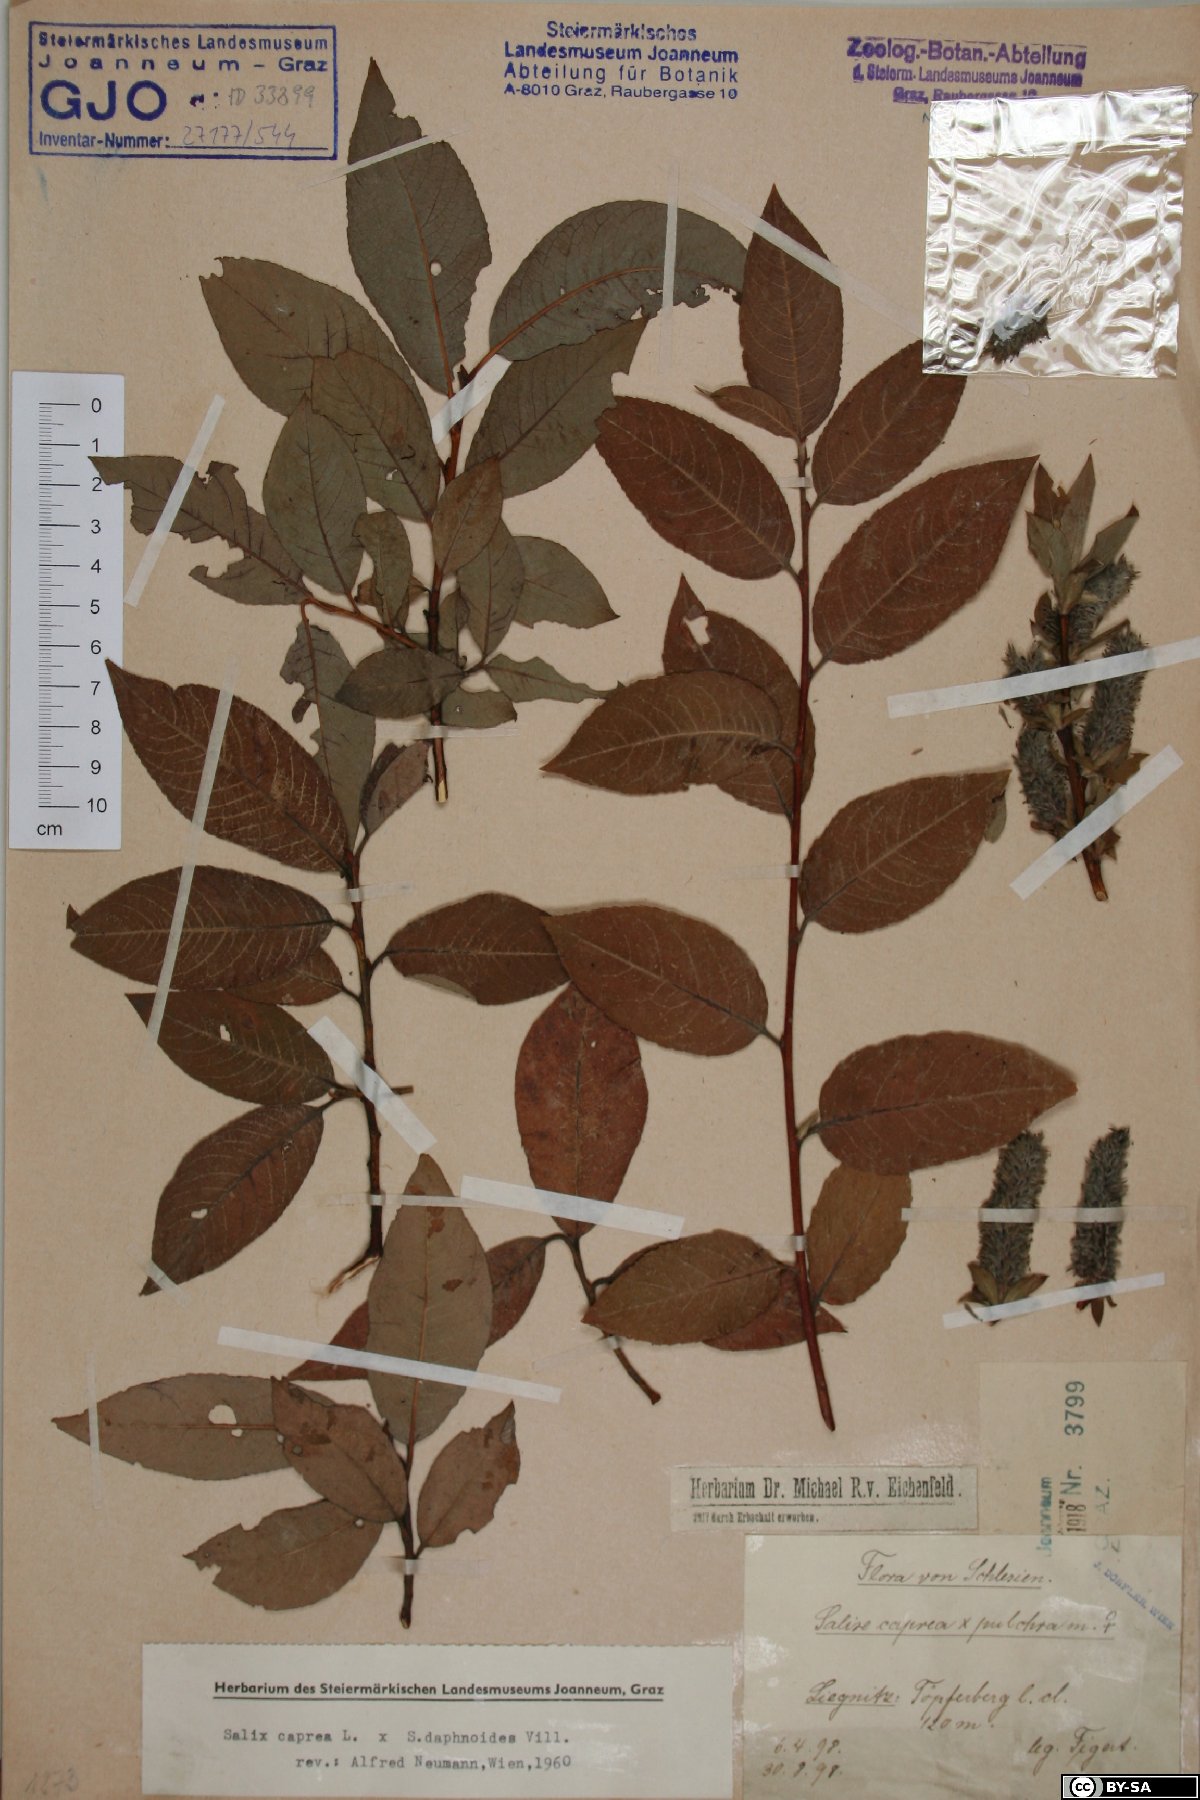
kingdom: Plantae
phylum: Tracheophyta
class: Magnoliopsida
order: Malpighiales
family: Salicaceae
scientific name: Salicaceae
